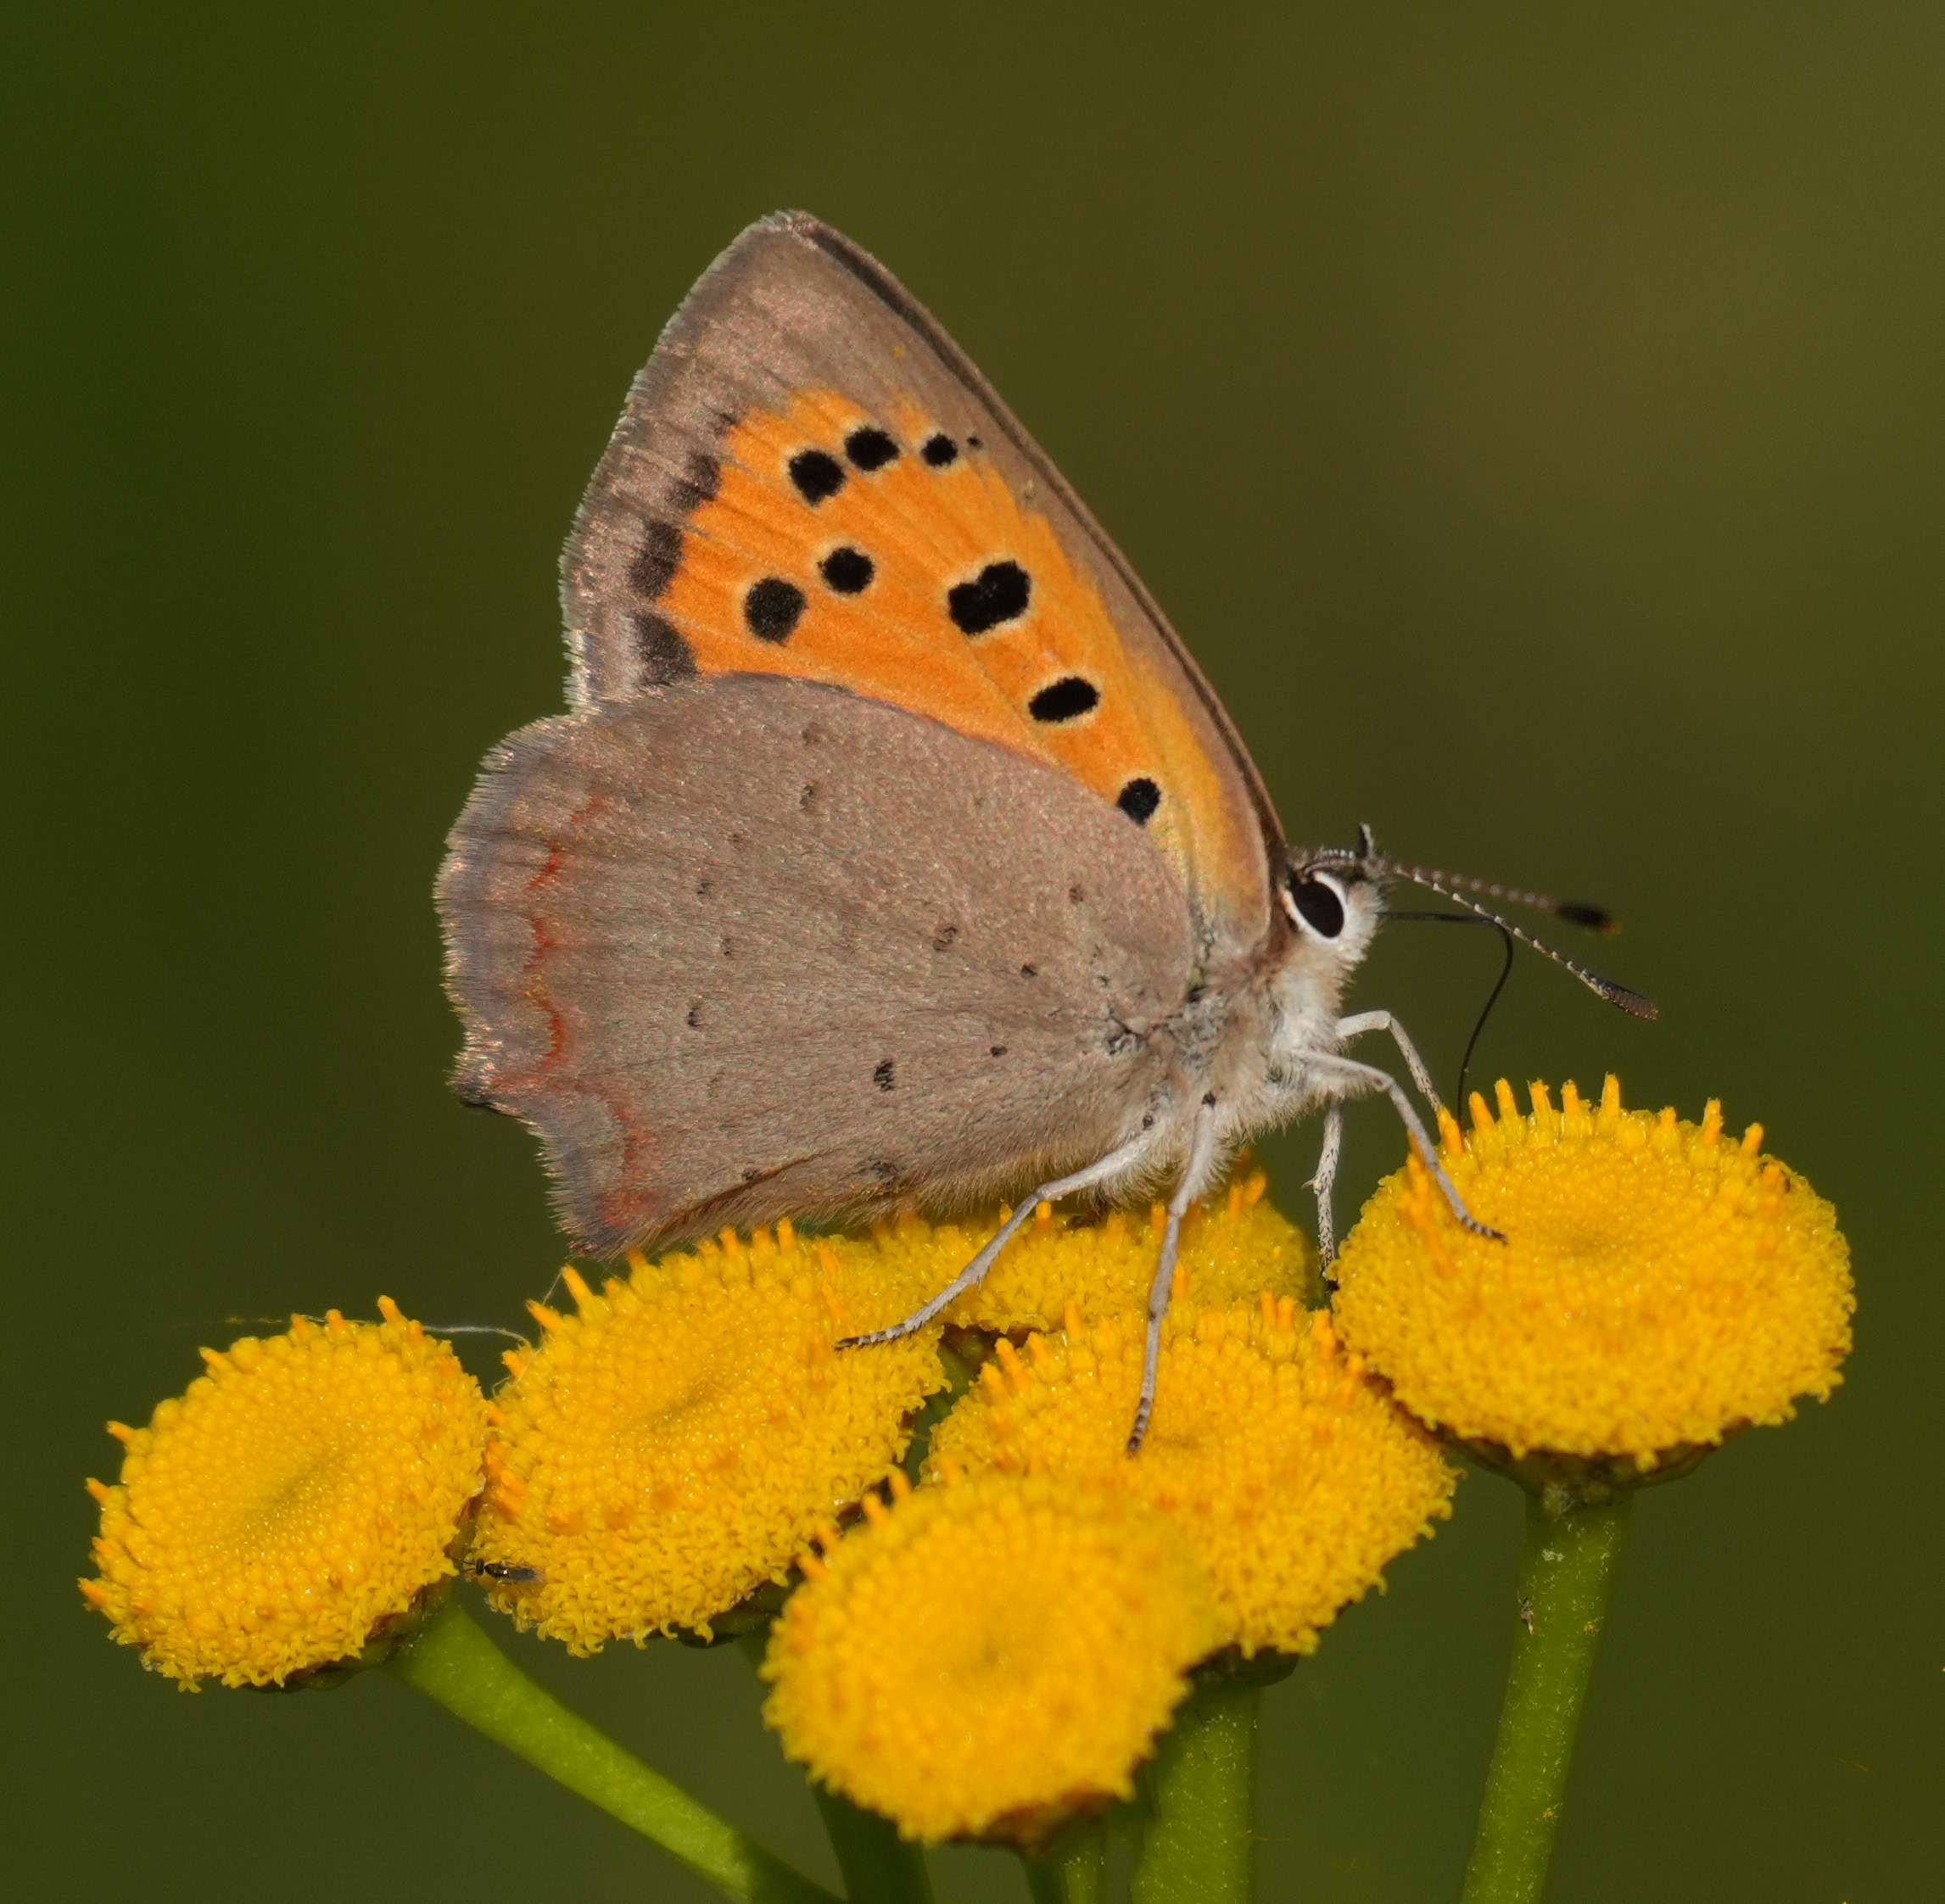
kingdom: Animalia
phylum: Arthropoda
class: Insecta
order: Lepidoptera
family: Lycaenidae
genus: Lycaena
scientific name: Lycaena phlaeas
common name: Lille ildfugl
